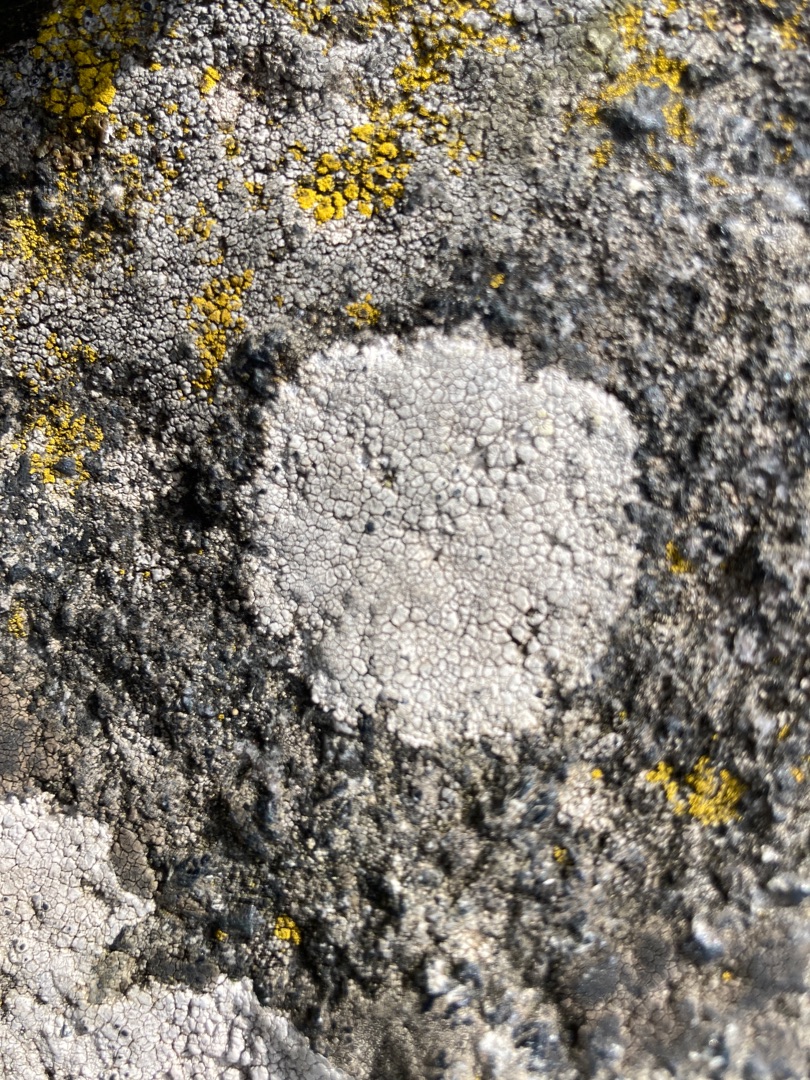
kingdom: Fungi
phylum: Ascomycota
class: Lecanoromycetes
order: Lecanorales
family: Lecanoraceae
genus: Glaucomaria
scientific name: Glaucomaria rupicola
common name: Stengærde-kantskivelav
